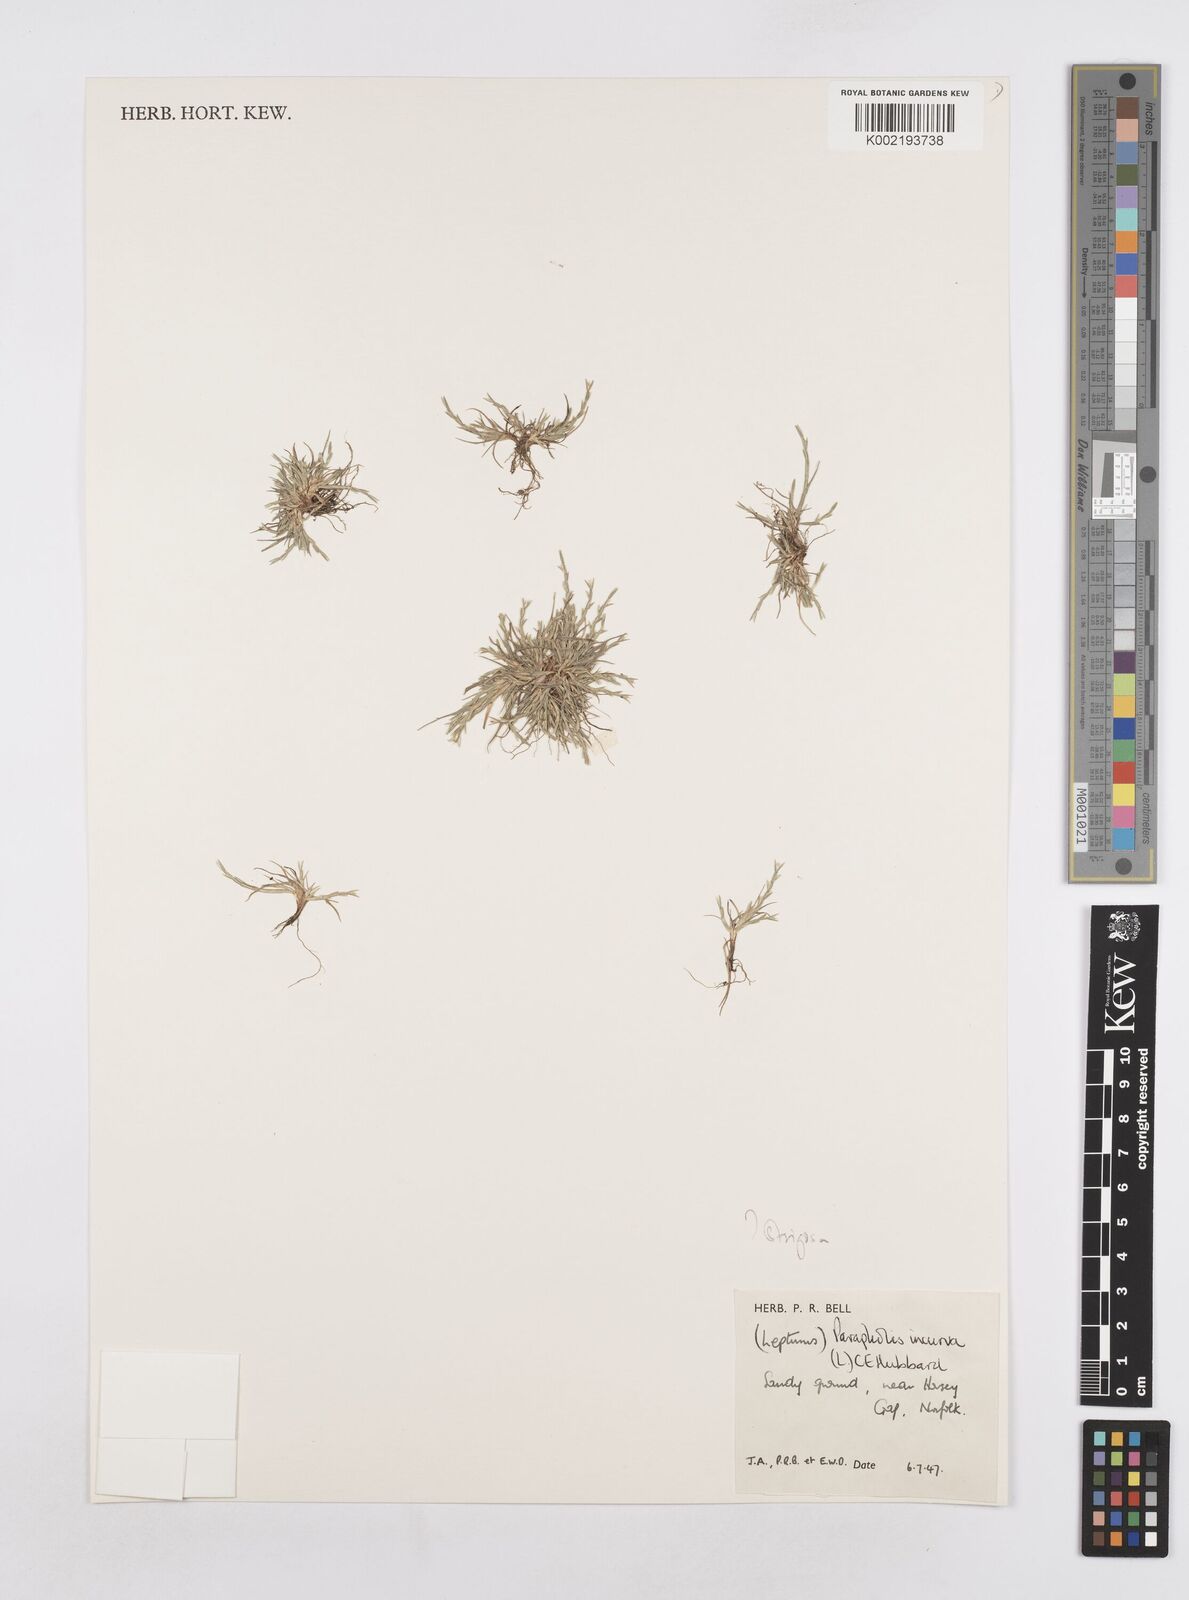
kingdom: Plantae
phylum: Tracheophyta
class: Liliopsida
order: Poales
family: Poaceae
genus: Parapholis
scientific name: Parapholis strigosa
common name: Hard-grass
